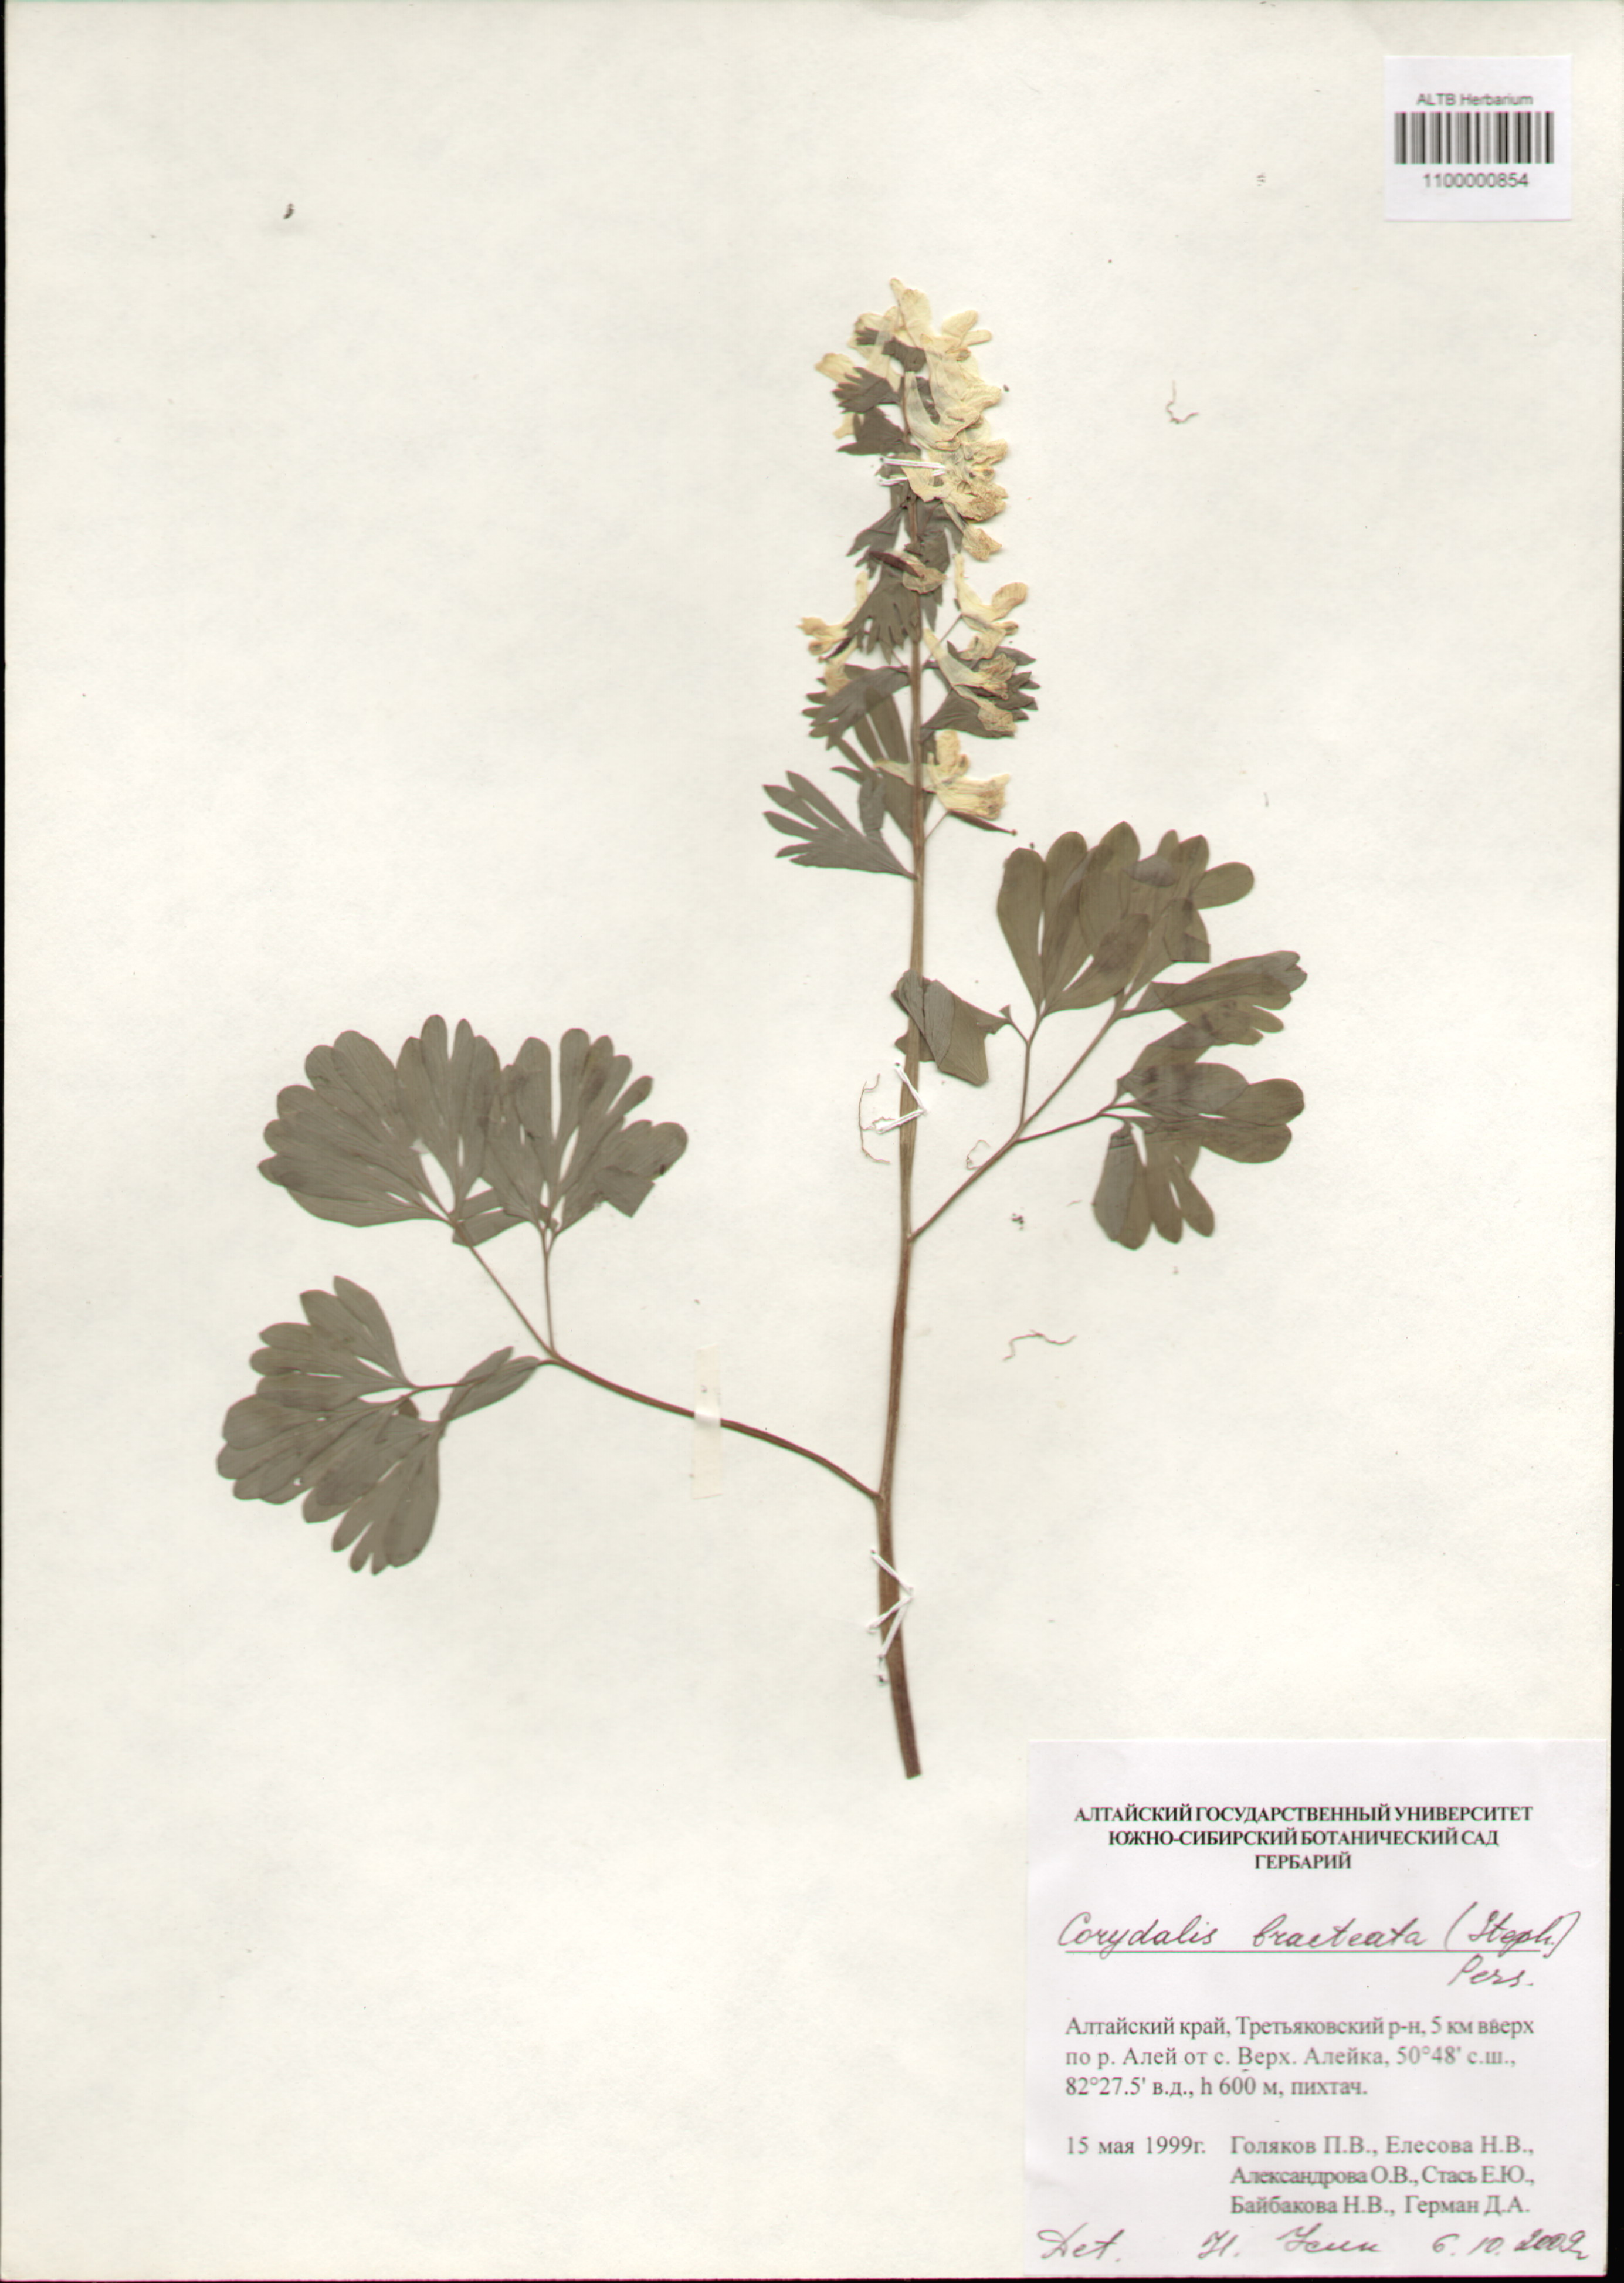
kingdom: Plantae
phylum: Tracheophyta
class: Magnoliopsida
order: Ranunculales
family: Papaveraceae
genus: Corydalis
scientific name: Corydalis bracteata
